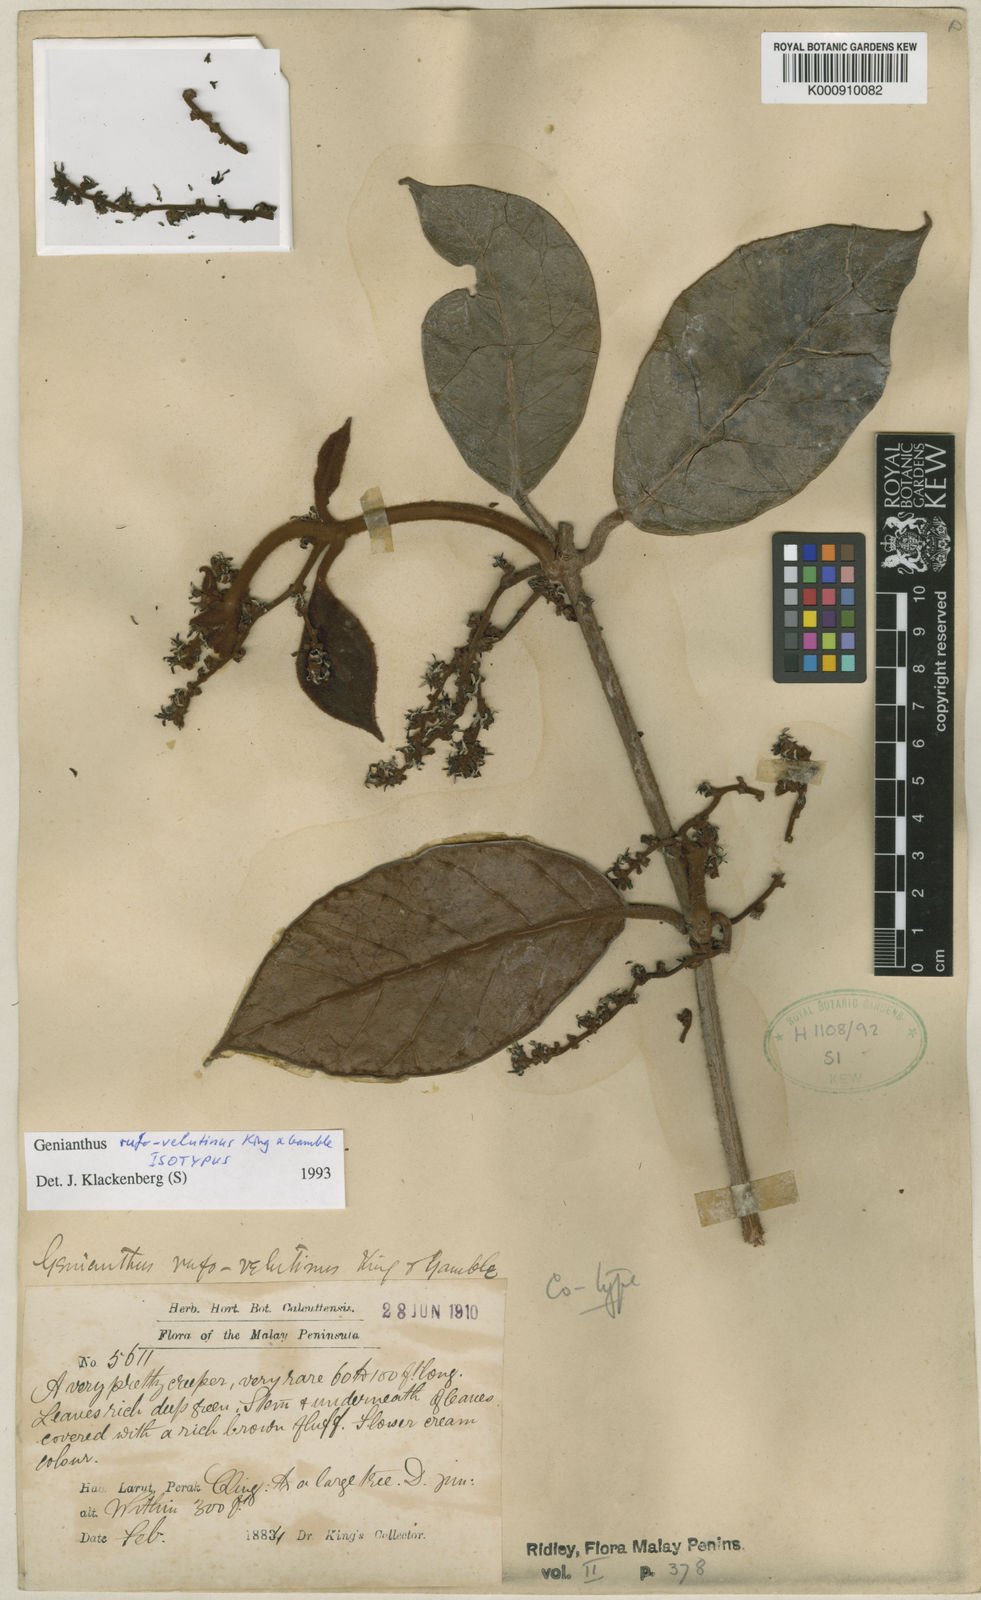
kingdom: Plantae
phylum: Tracheophyta
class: Magnoliopsida
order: Gentianales
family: Apocynaceae
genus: Secamone
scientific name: Secamone
